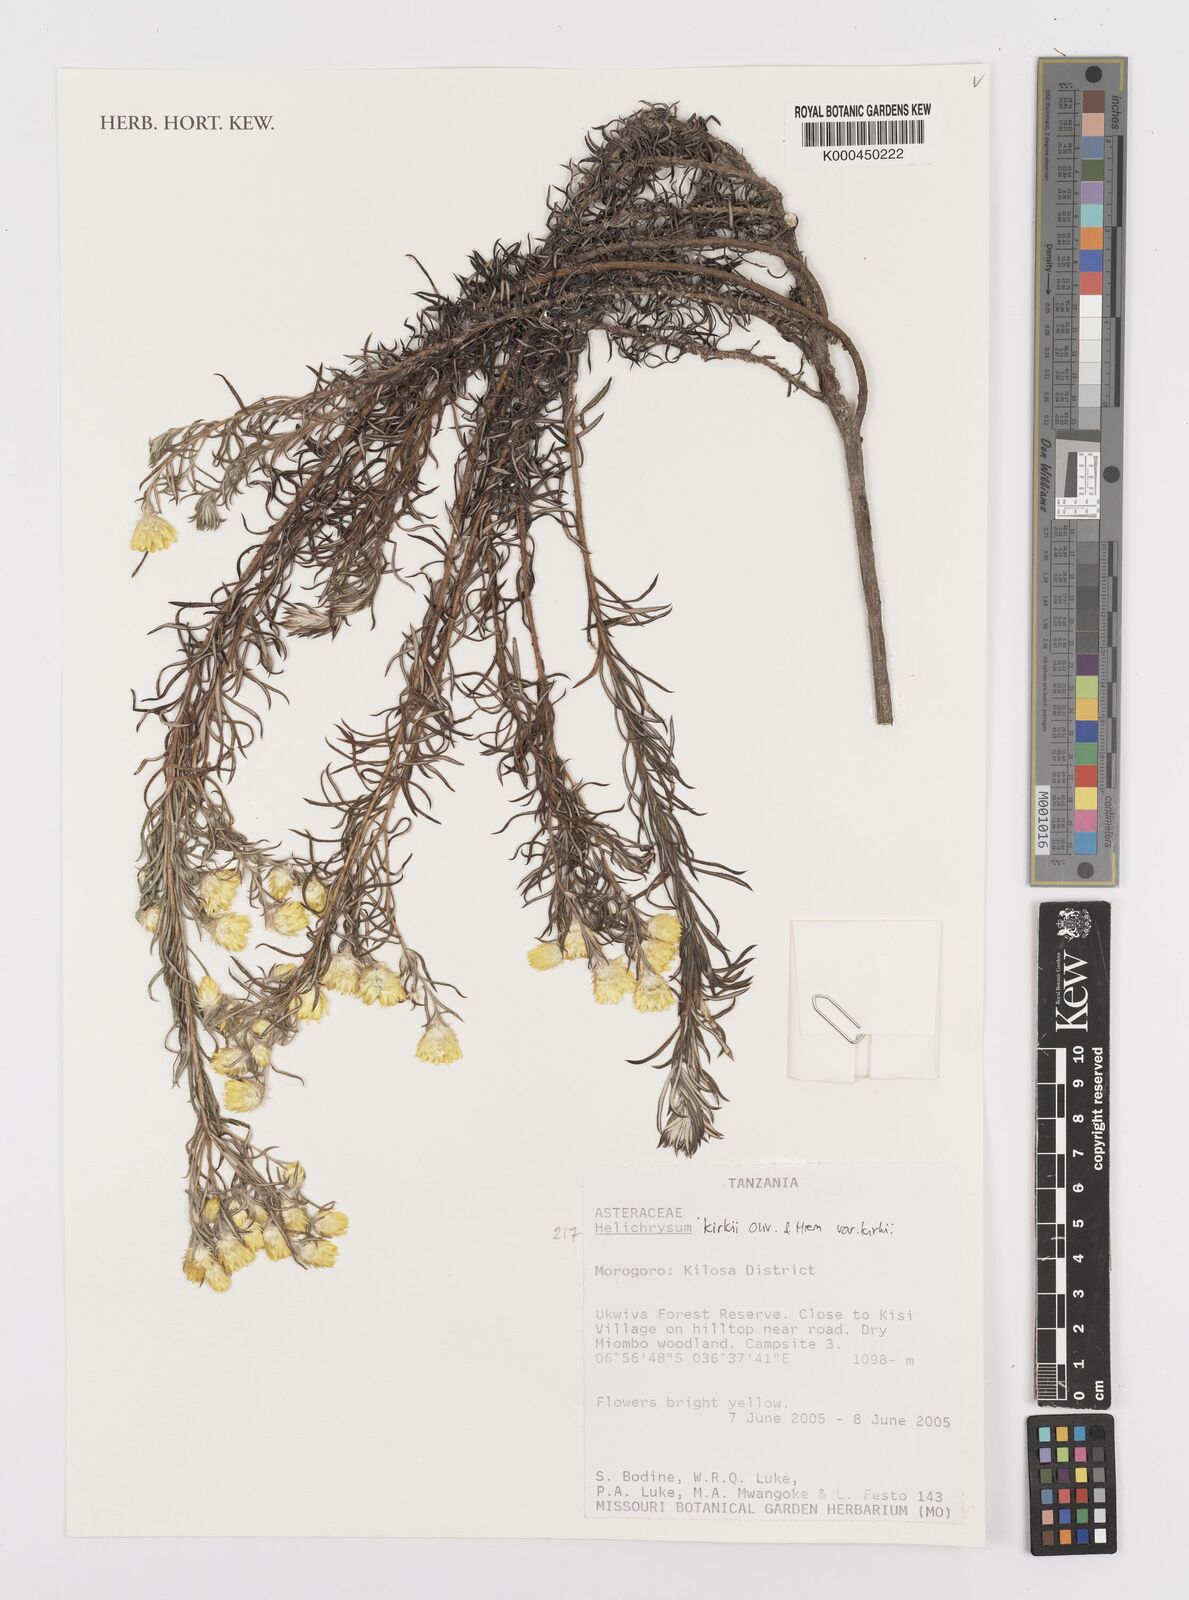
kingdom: Plantae
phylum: Tracheophyta
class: Magnoliopsida
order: Asterales
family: Asteraceae
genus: Helichrysum
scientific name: Helichrysum kirkii
